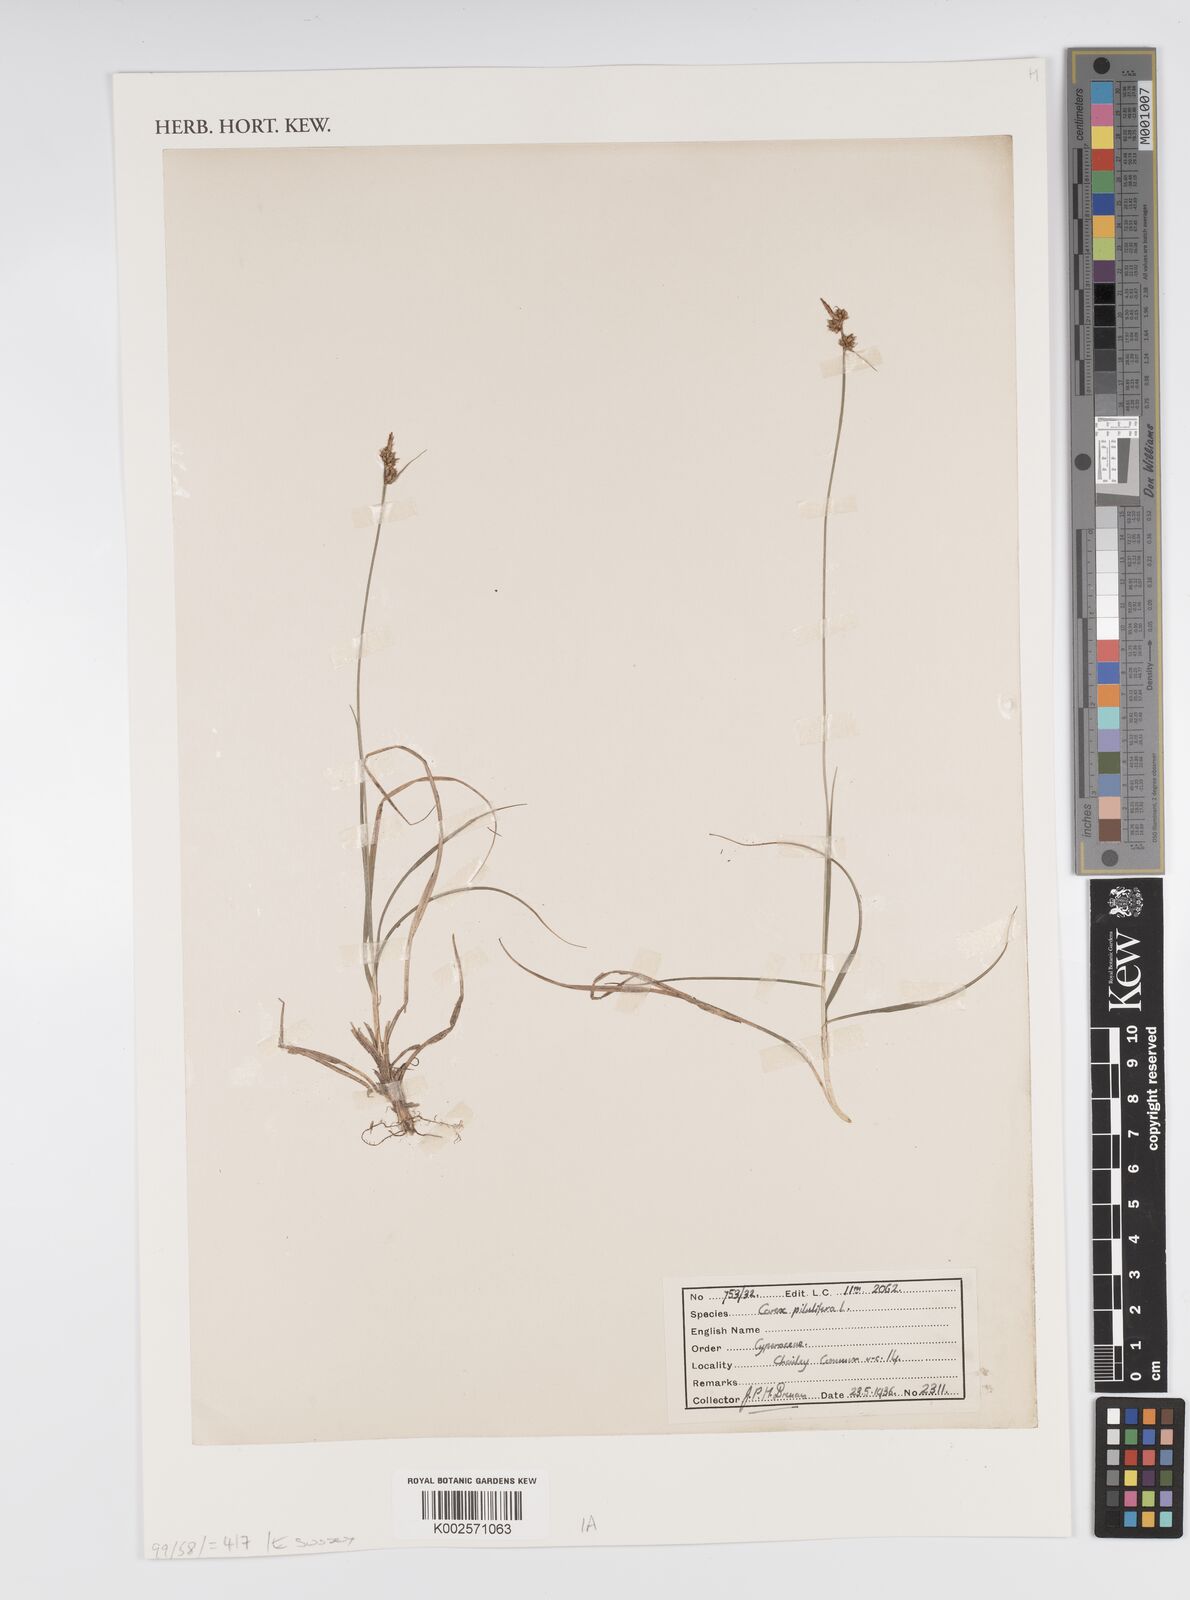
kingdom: Plantae
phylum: Tracheophyta
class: Liliopsida
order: Poales
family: Cyperaceae
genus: Carex
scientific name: Carex pilulifera
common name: Pill sedge
